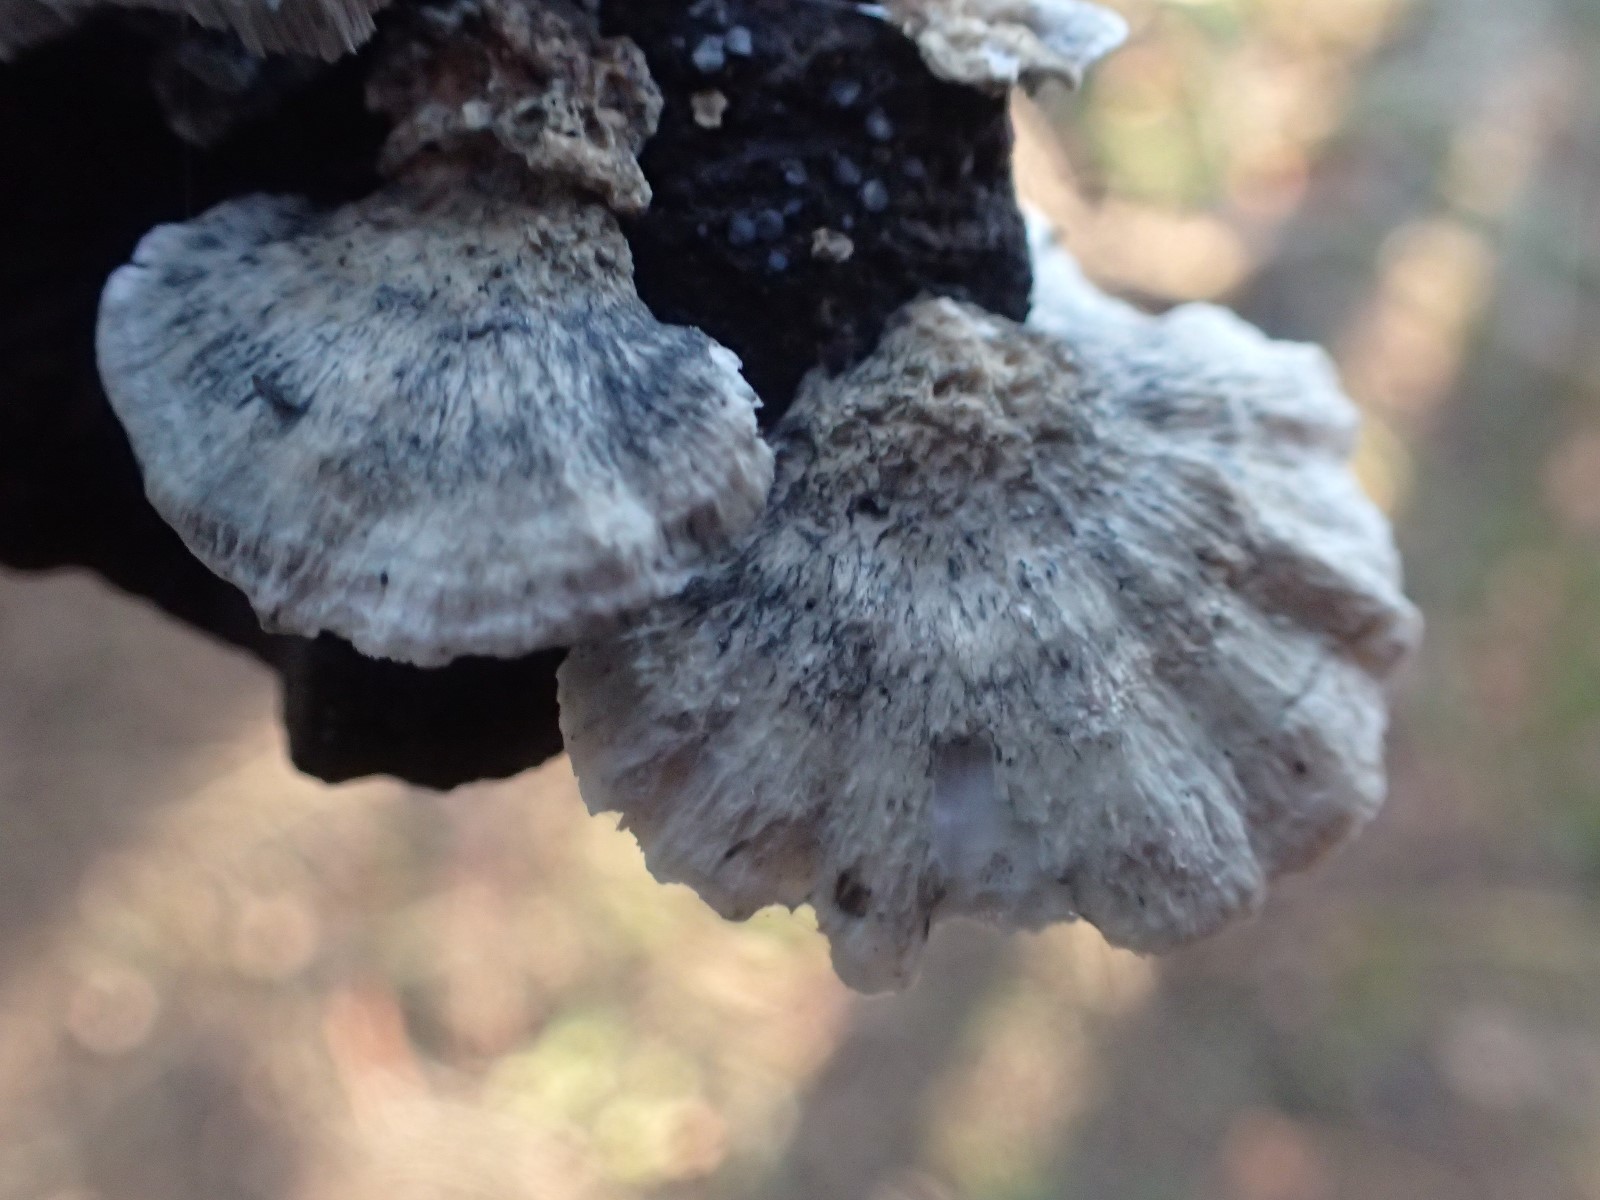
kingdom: Fungi
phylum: Basidiomycota
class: Agaricomycetes
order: Polyporales
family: Polyporaceae
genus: Cyanosporus
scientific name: Cyanosporus alni
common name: blegblå kødporesvamp
